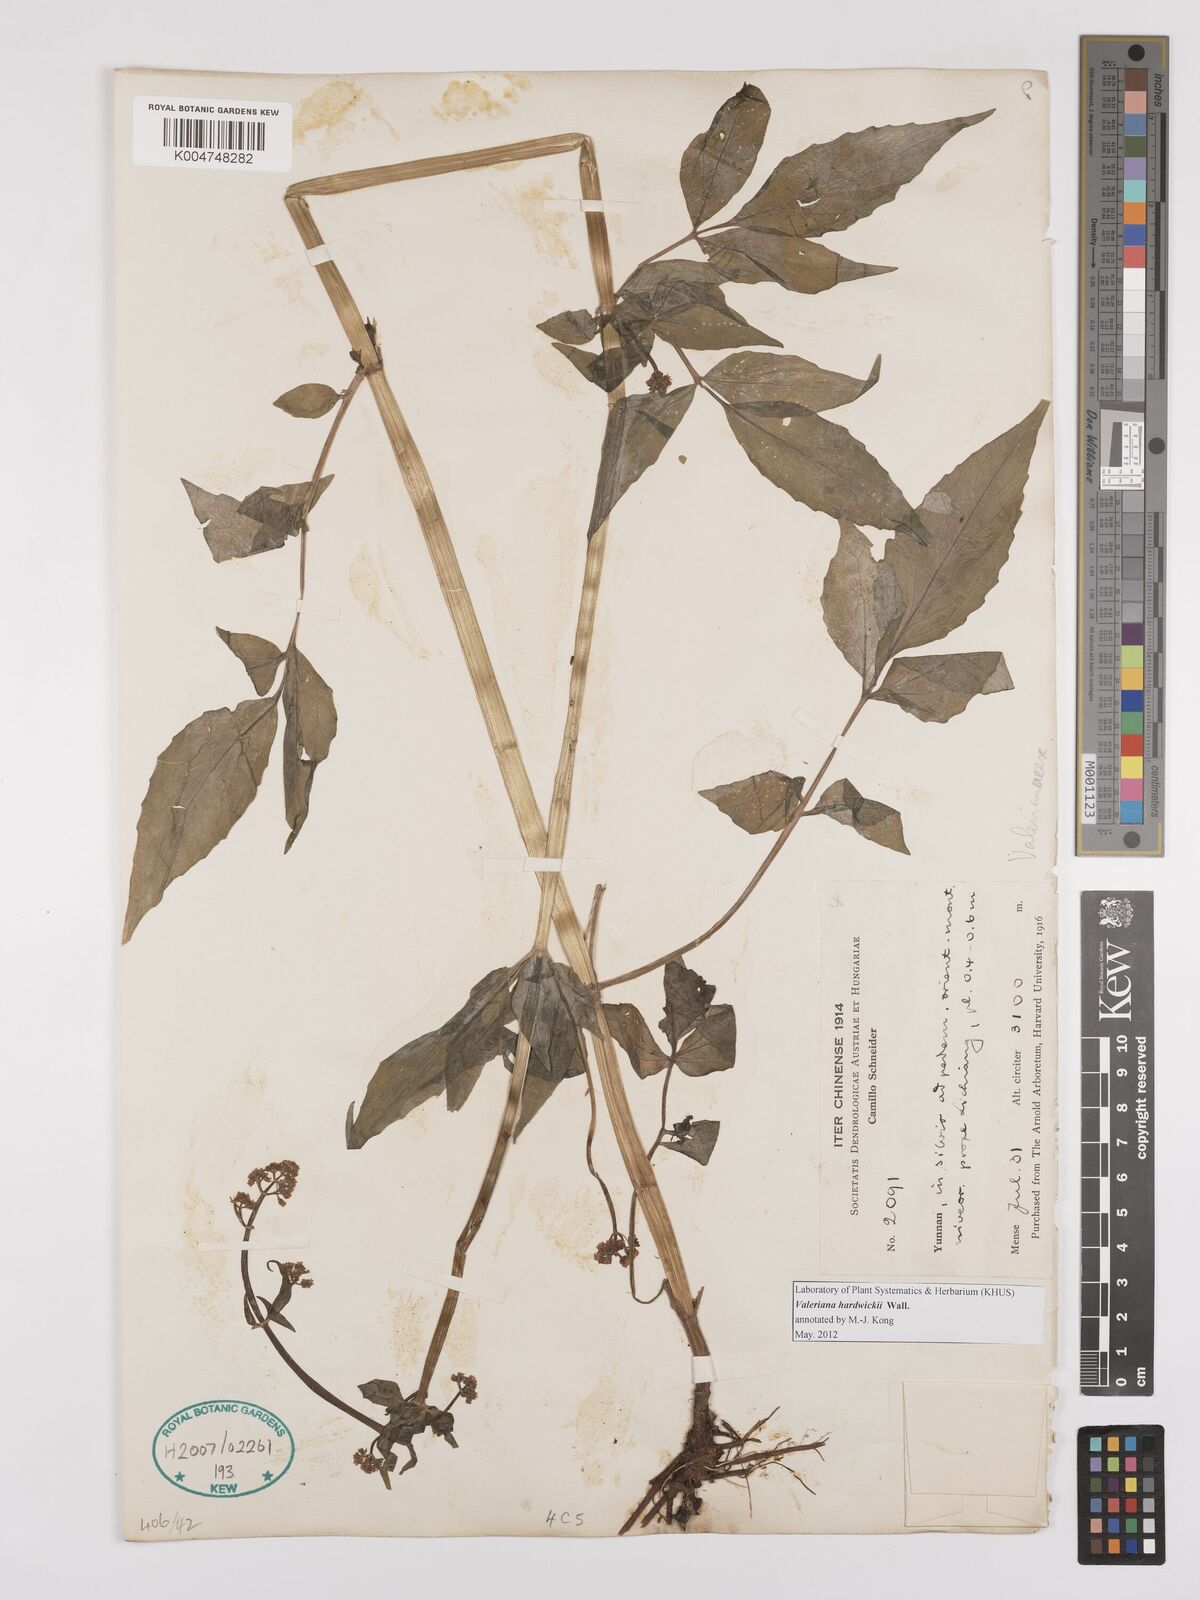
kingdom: Plantae
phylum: Tracheophyta
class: Magnoliopsida
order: Dipsacales
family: Caprifoliaceae
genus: Valeriana
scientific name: Valeriana hardwickei
